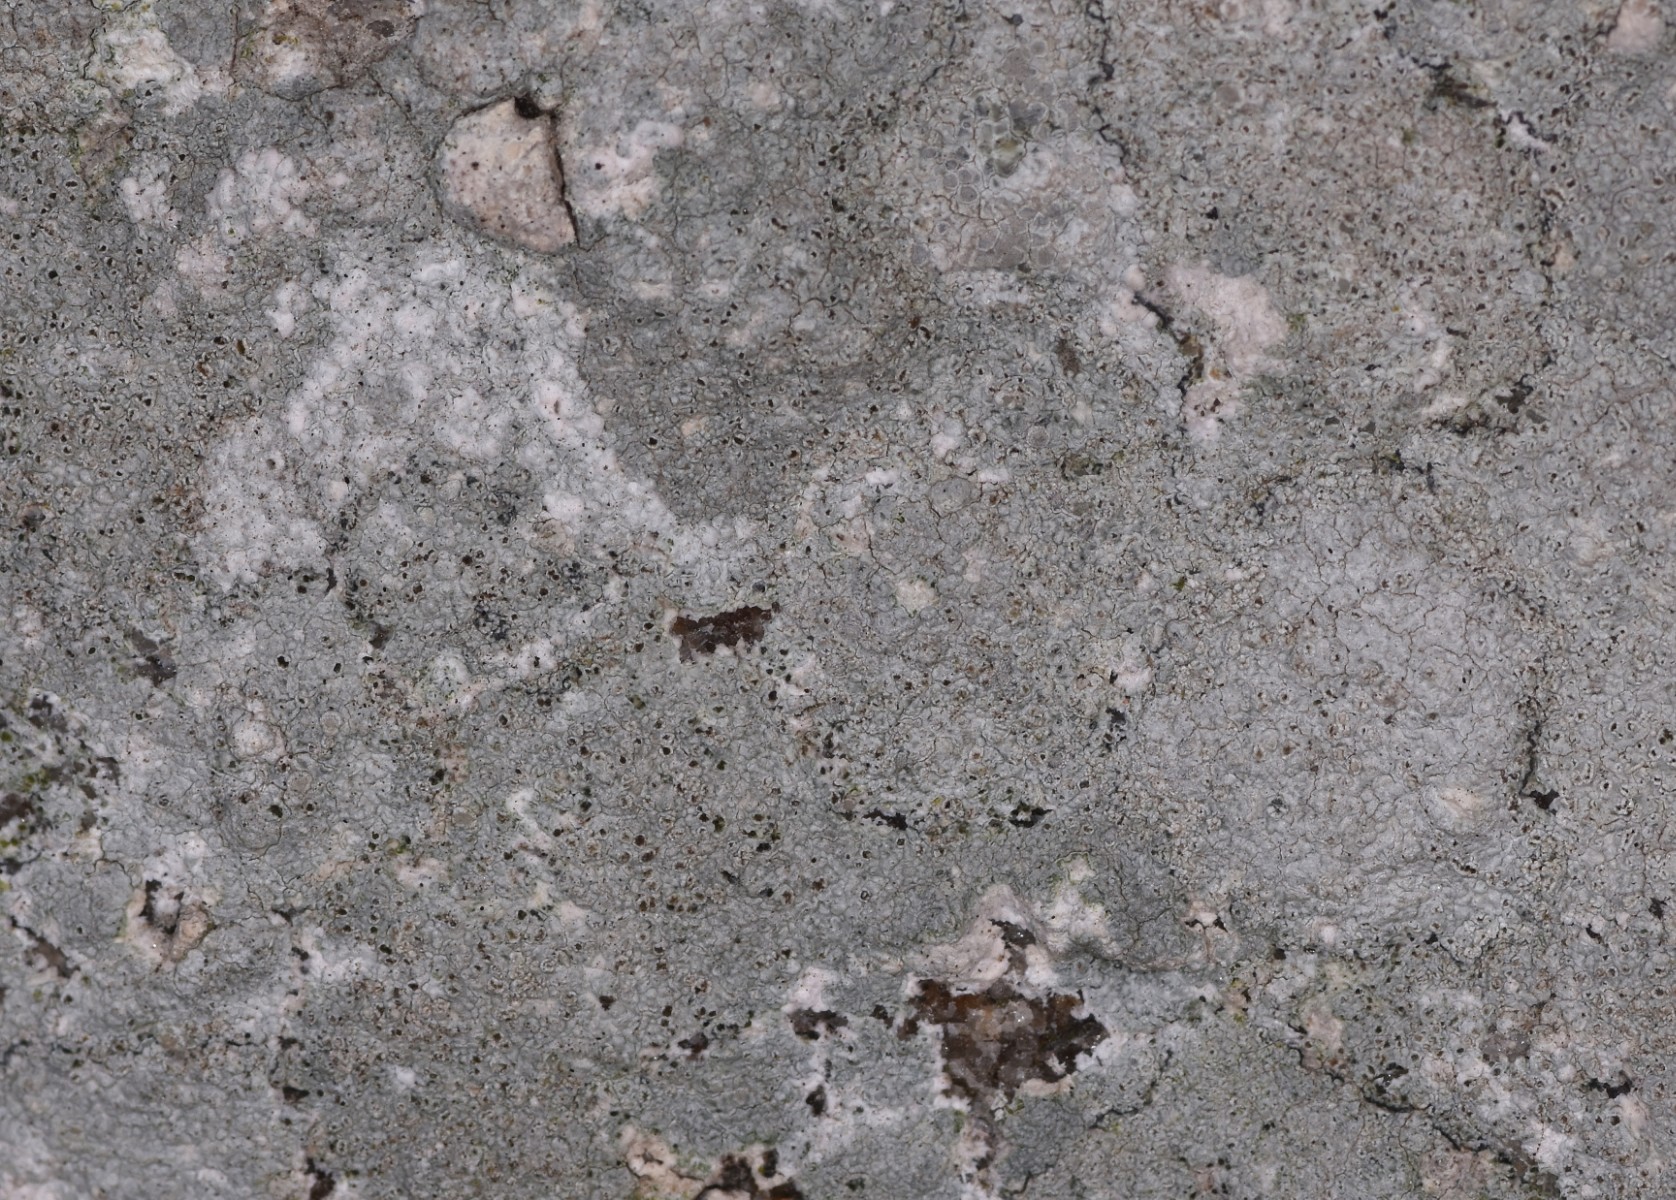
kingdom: Fungi
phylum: Ascomycota
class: Lecanoromycetes
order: Lecanorales
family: Lecanoraceae
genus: Glaucomaria
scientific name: Glaucomaria rupicola
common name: stengærde-kantskivelav
